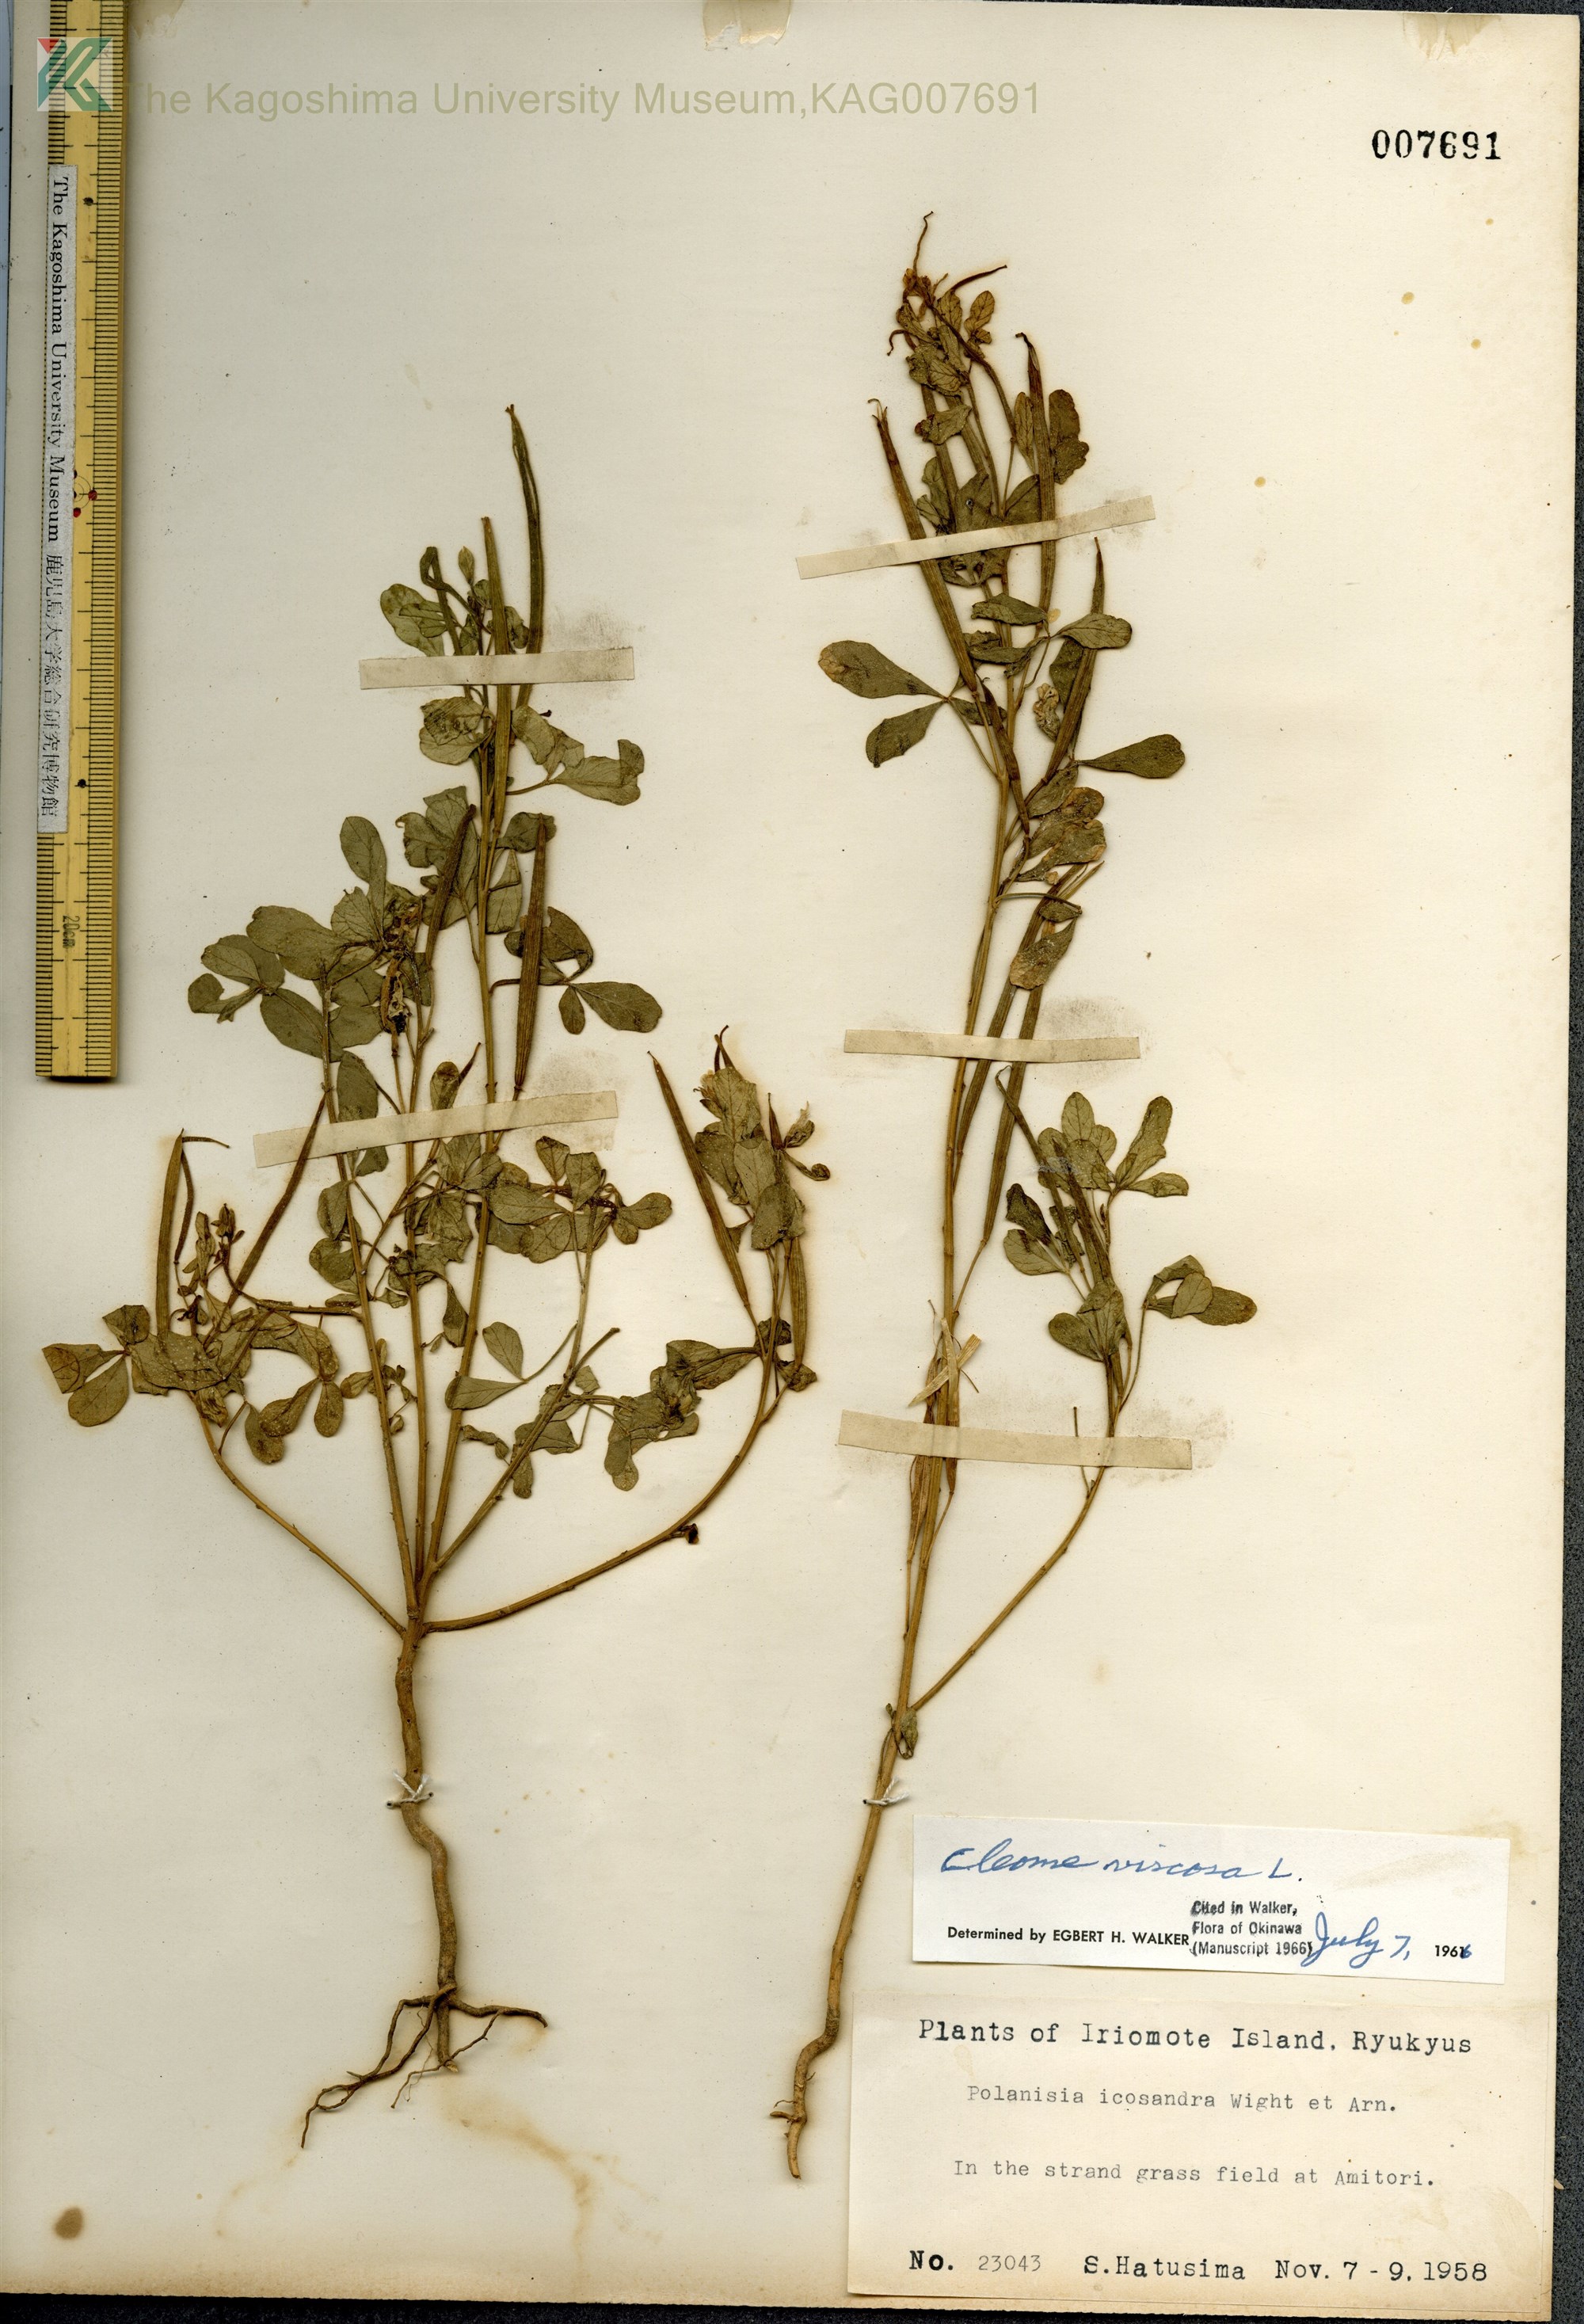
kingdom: Plantae
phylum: Tracheophyta
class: Magnoliopsida
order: Brassicales
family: Cleomaceae
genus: Arivela
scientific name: Arivela viscosa
